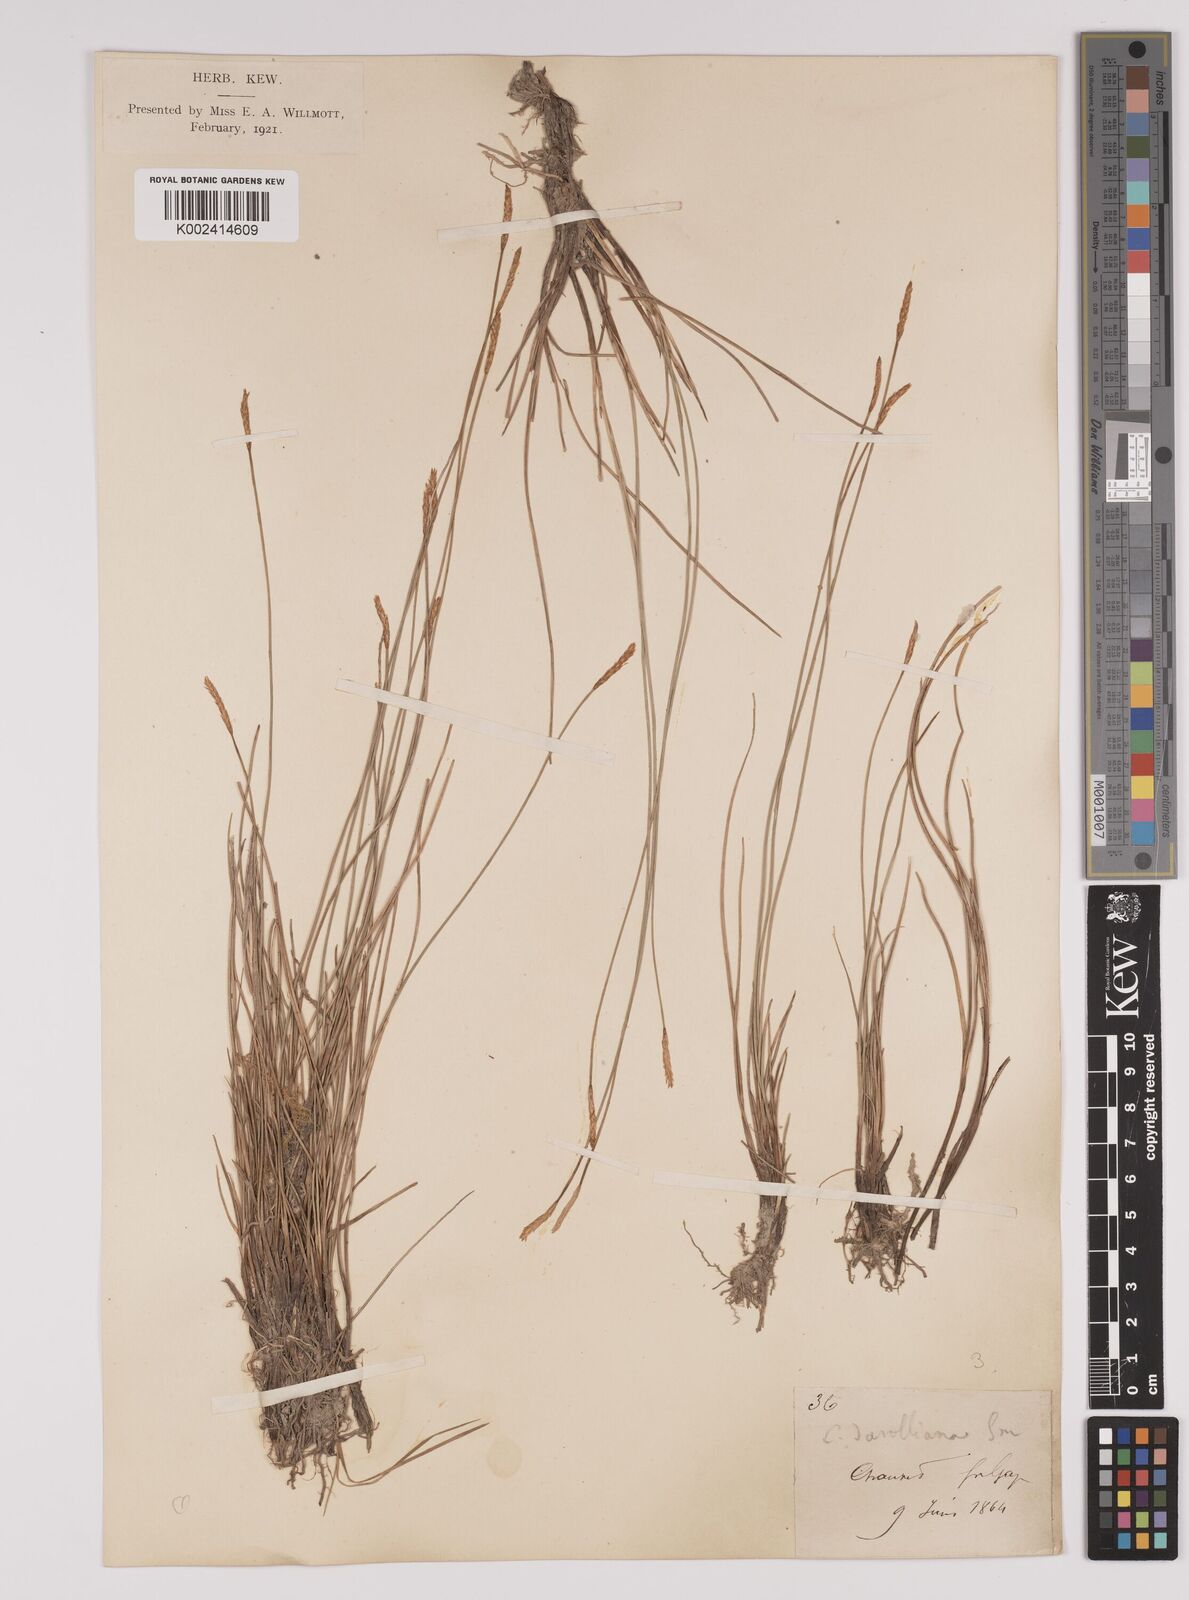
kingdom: Plantae
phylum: Tracheophyta
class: Liliopsida
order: Poales
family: Cyperaceae
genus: Carex
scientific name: Carex davalliana
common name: Davall's sedge
